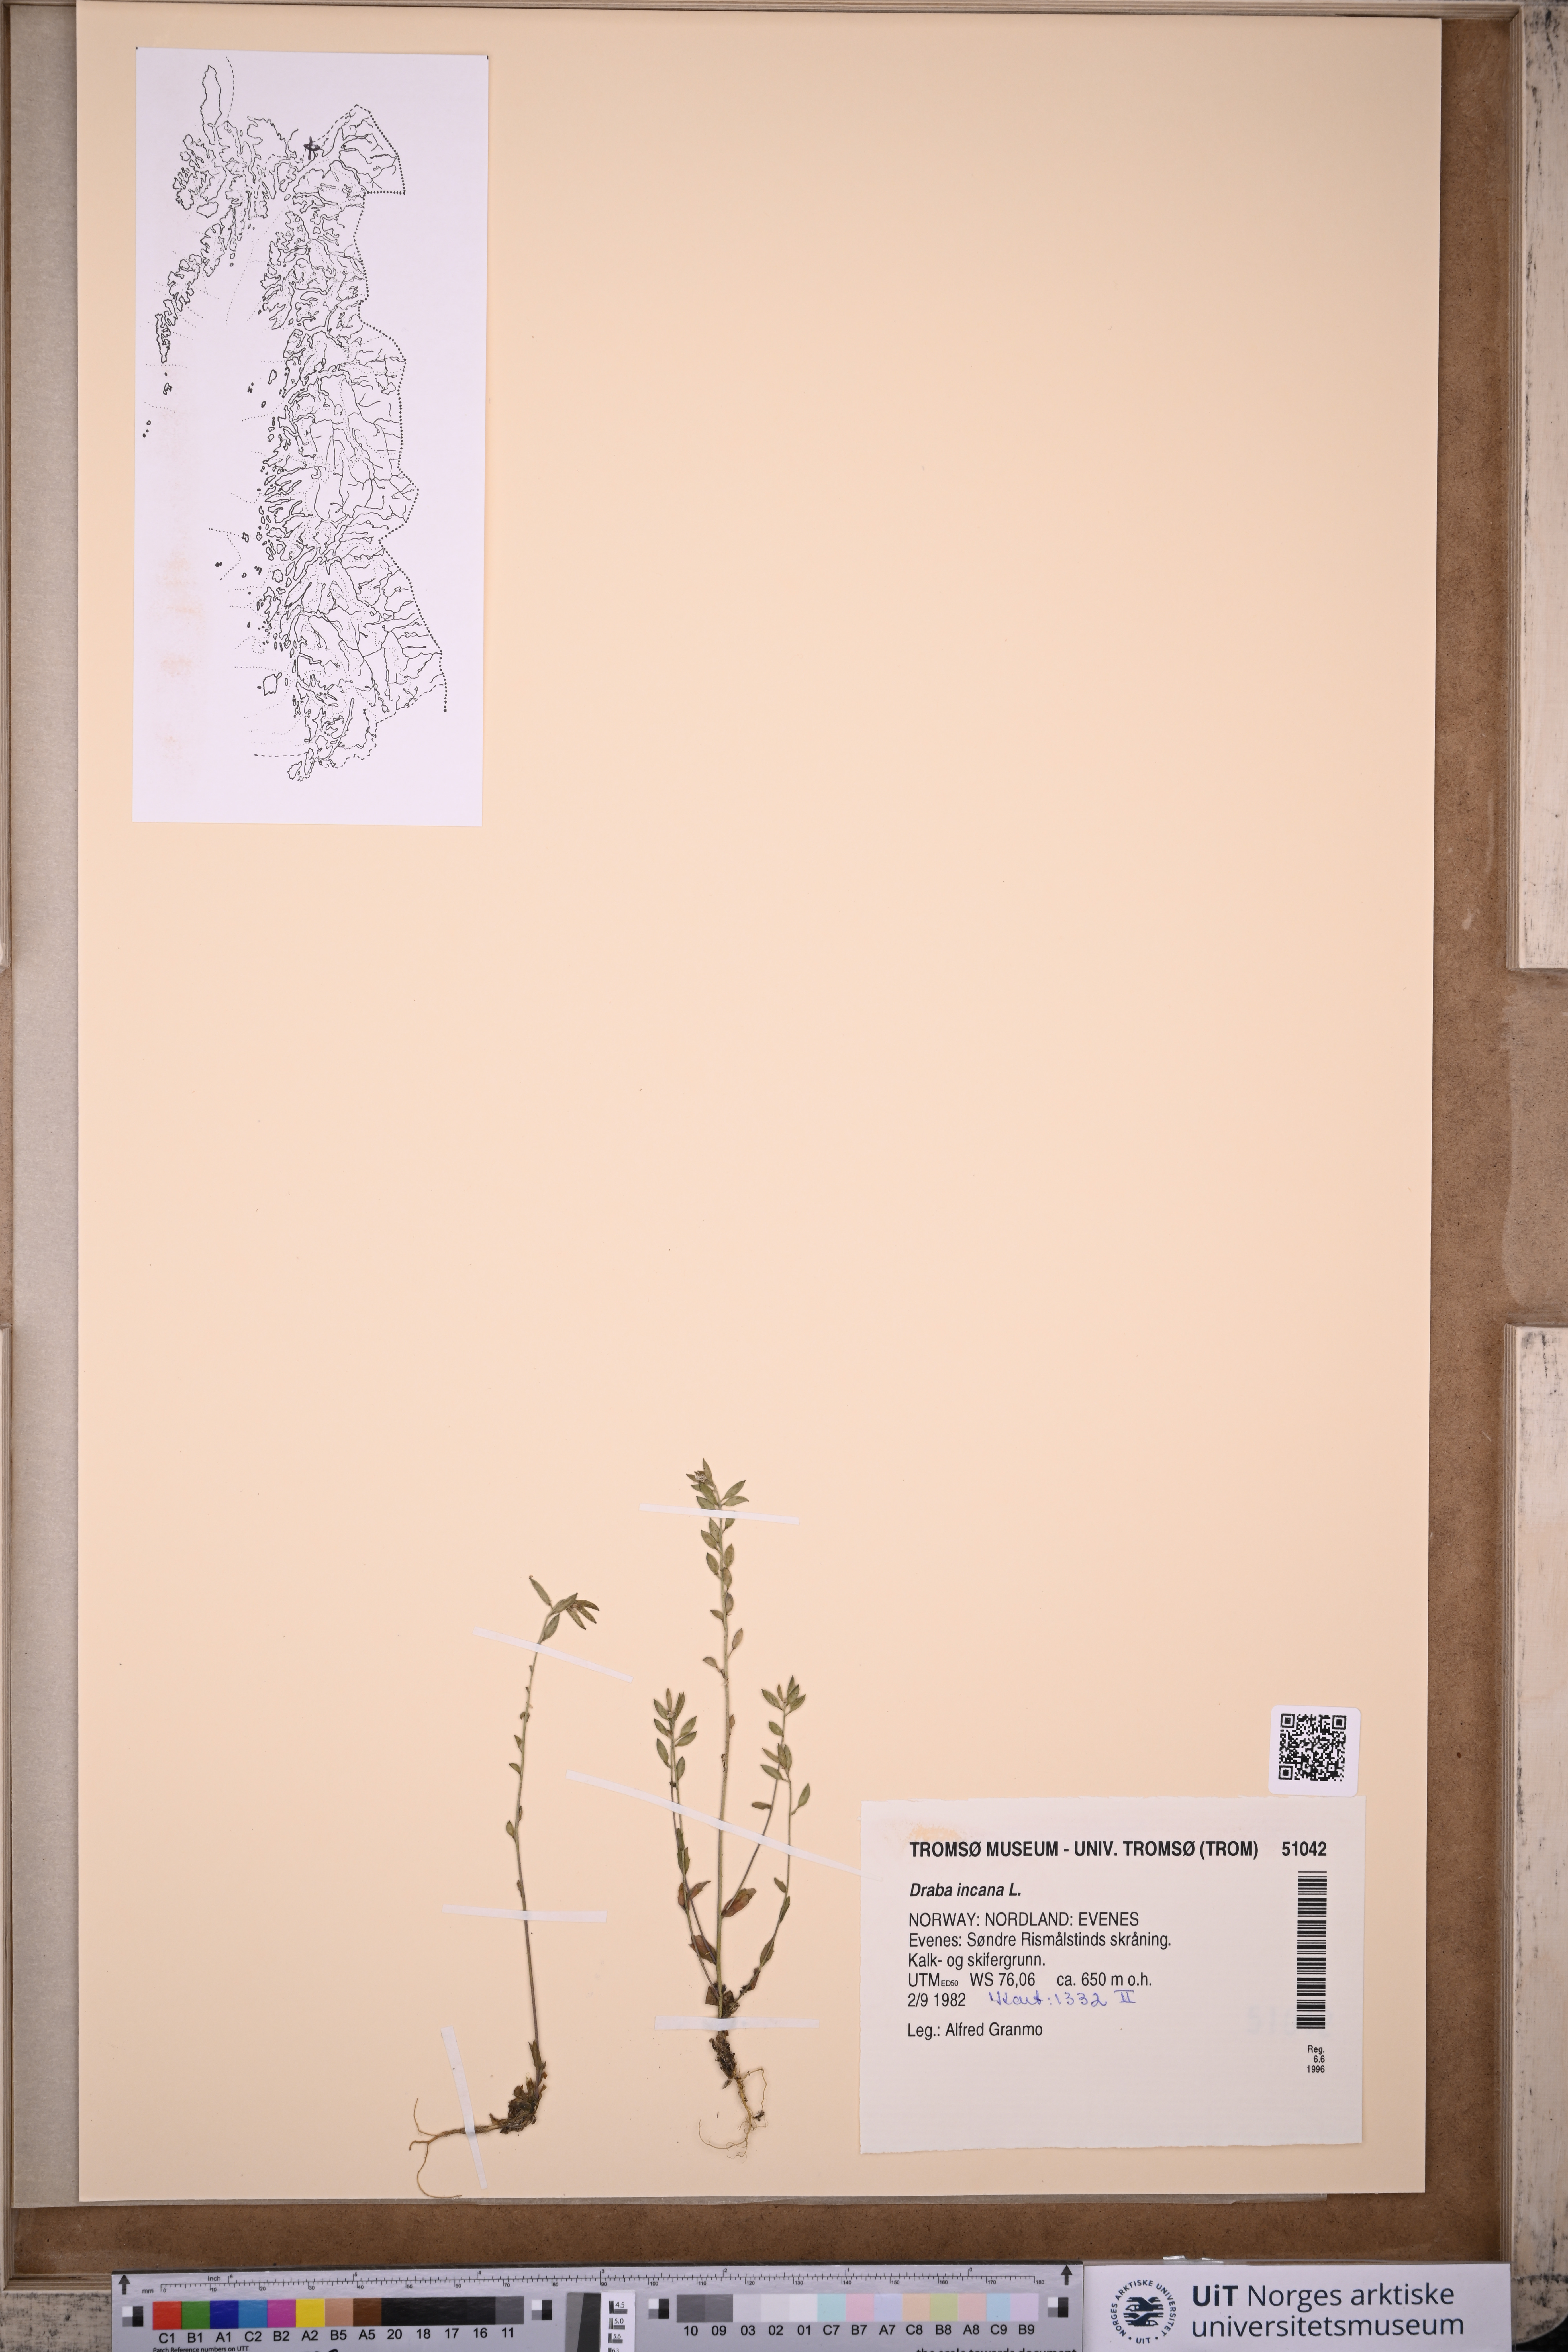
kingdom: Plantae
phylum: Tracheophyta
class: Magnoliopsida
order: Brassicales
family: Brassicaceae
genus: Draba
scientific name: Draba incana
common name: Hoary whitlow-grass
